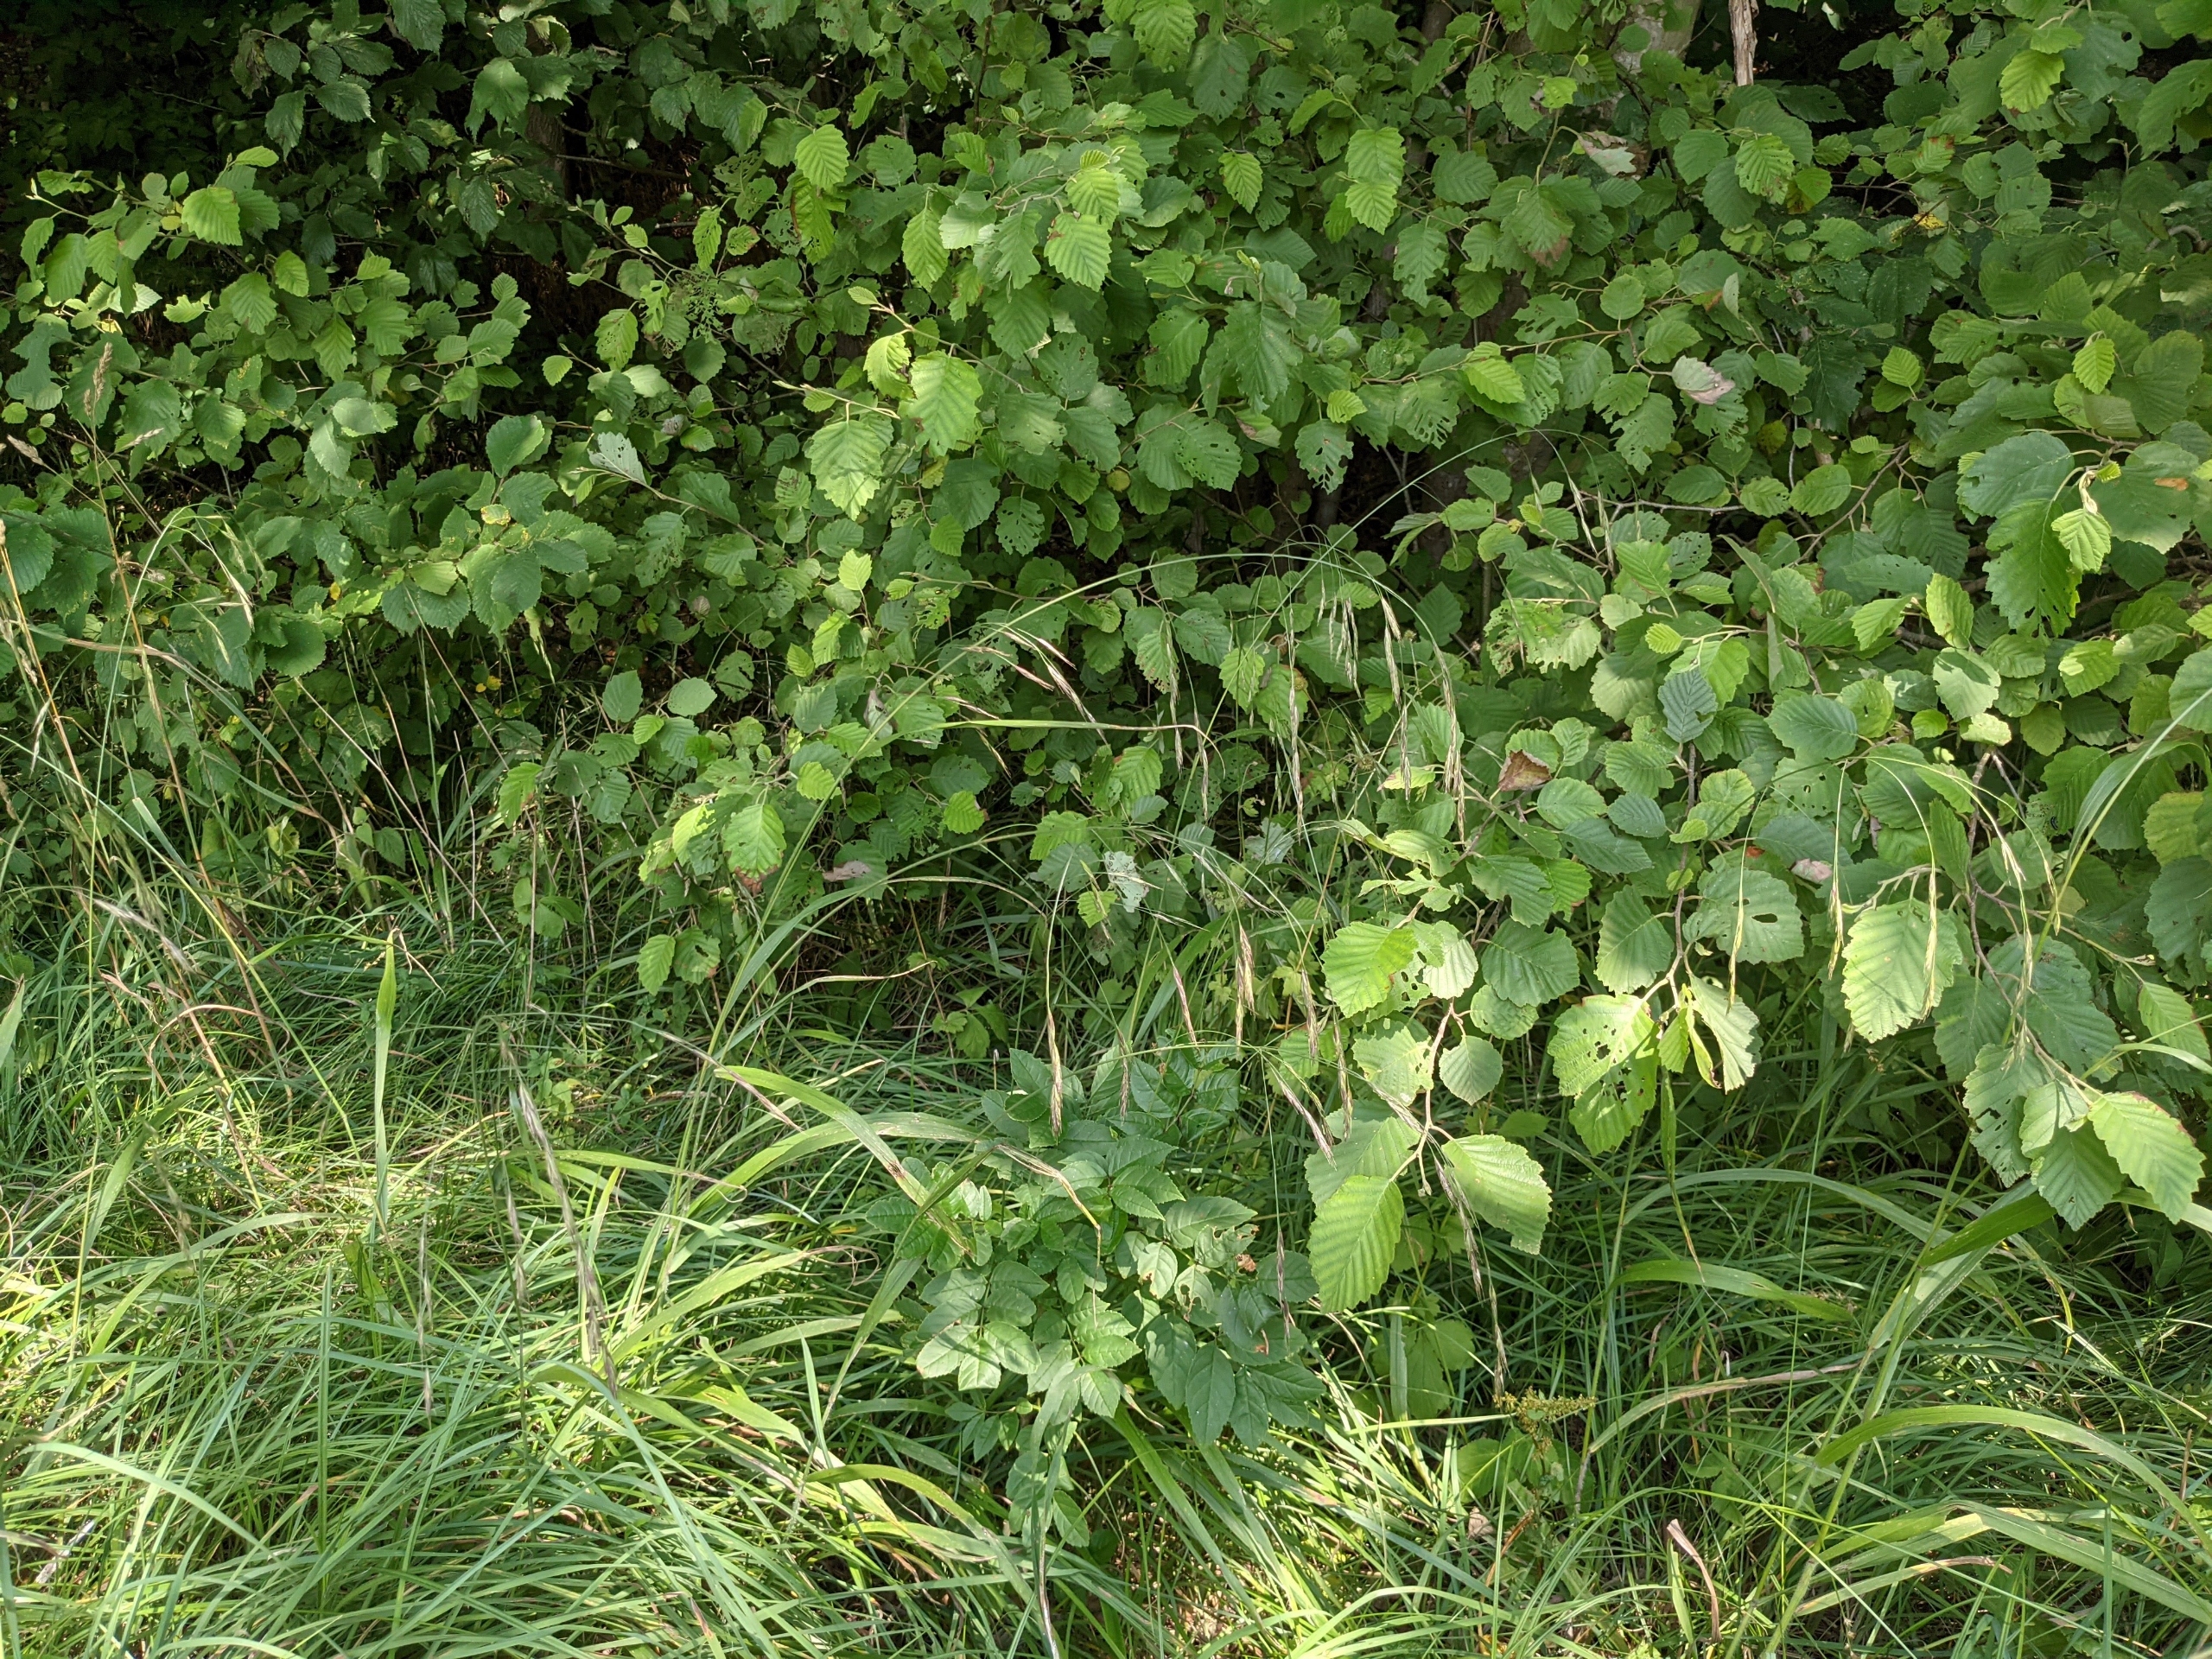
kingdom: Plantae
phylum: Tracheophyta
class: Liliopsida
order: Poales
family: Poaceae
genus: Bromus
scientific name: Bromus ramosus
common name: Sildig skov-hejre
